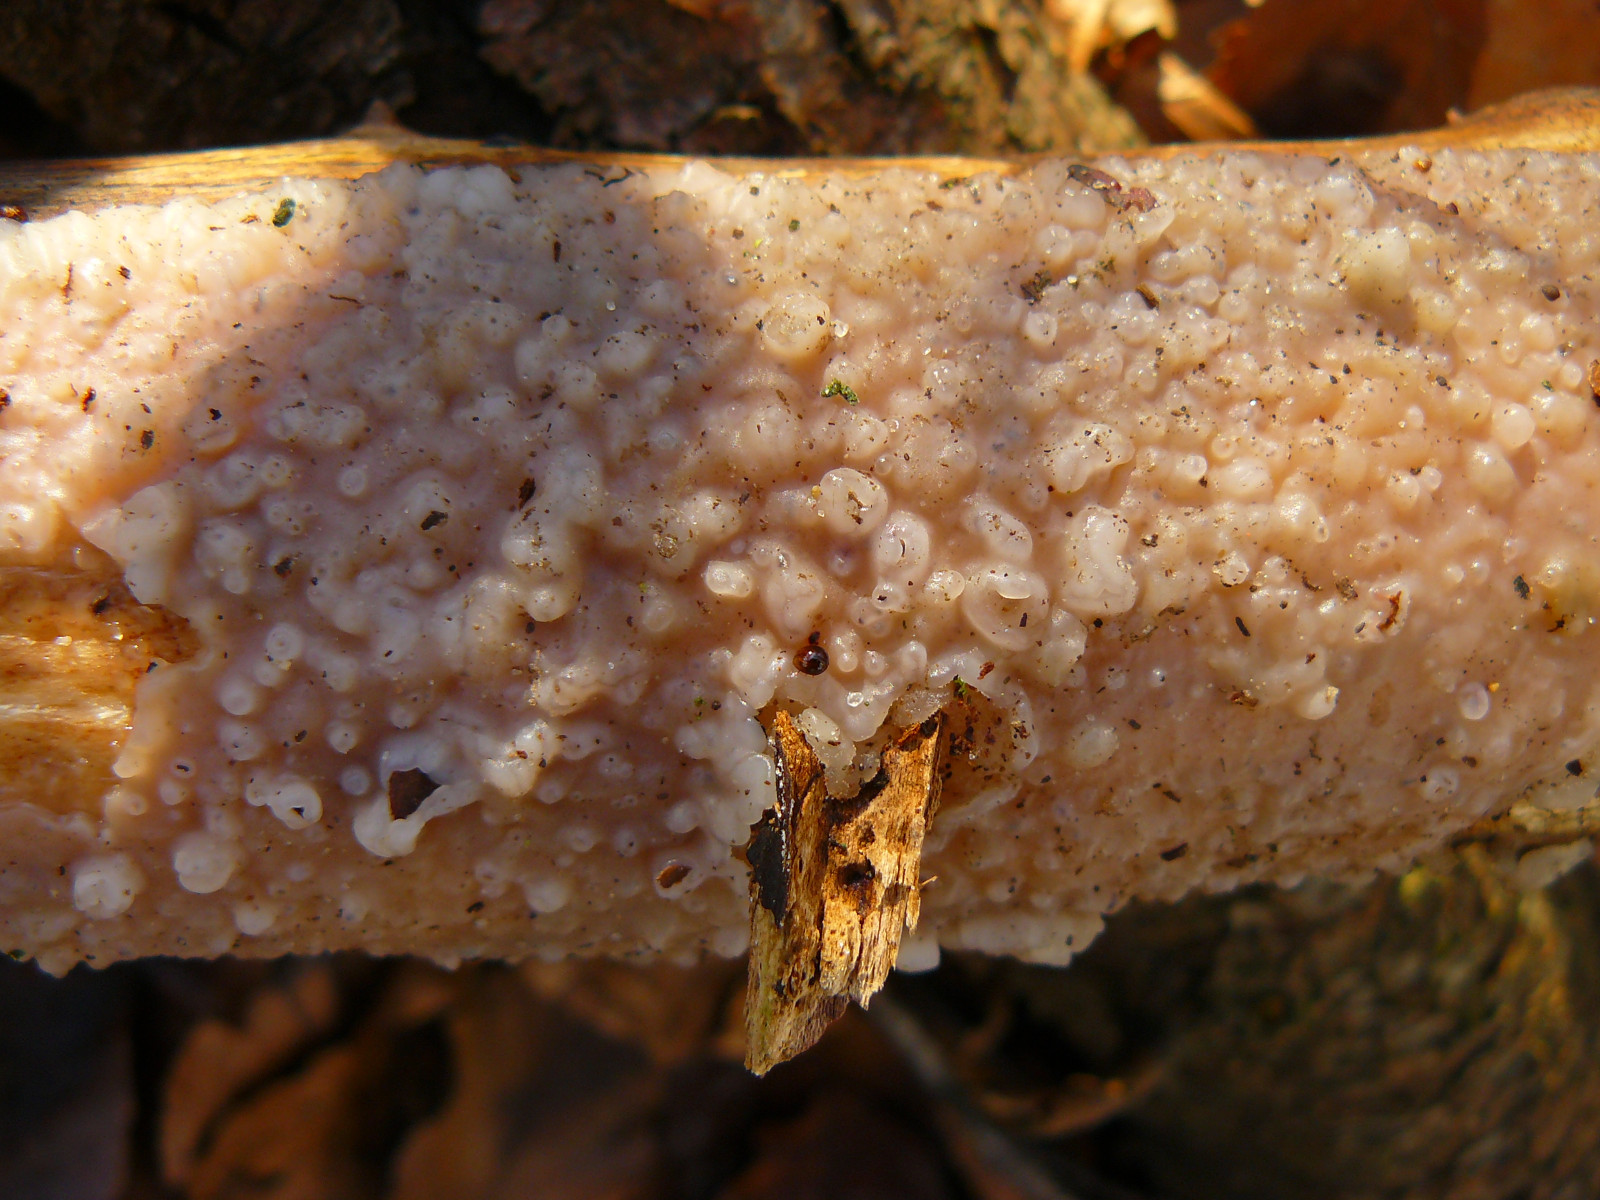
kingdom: Fungi
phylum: Basidiomycota
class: Tremellomycetes
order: Tremellales
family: Exidiaceae
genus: Exidiopsis
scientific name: Exidiopsis effusa
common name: smuk bævrehinde
